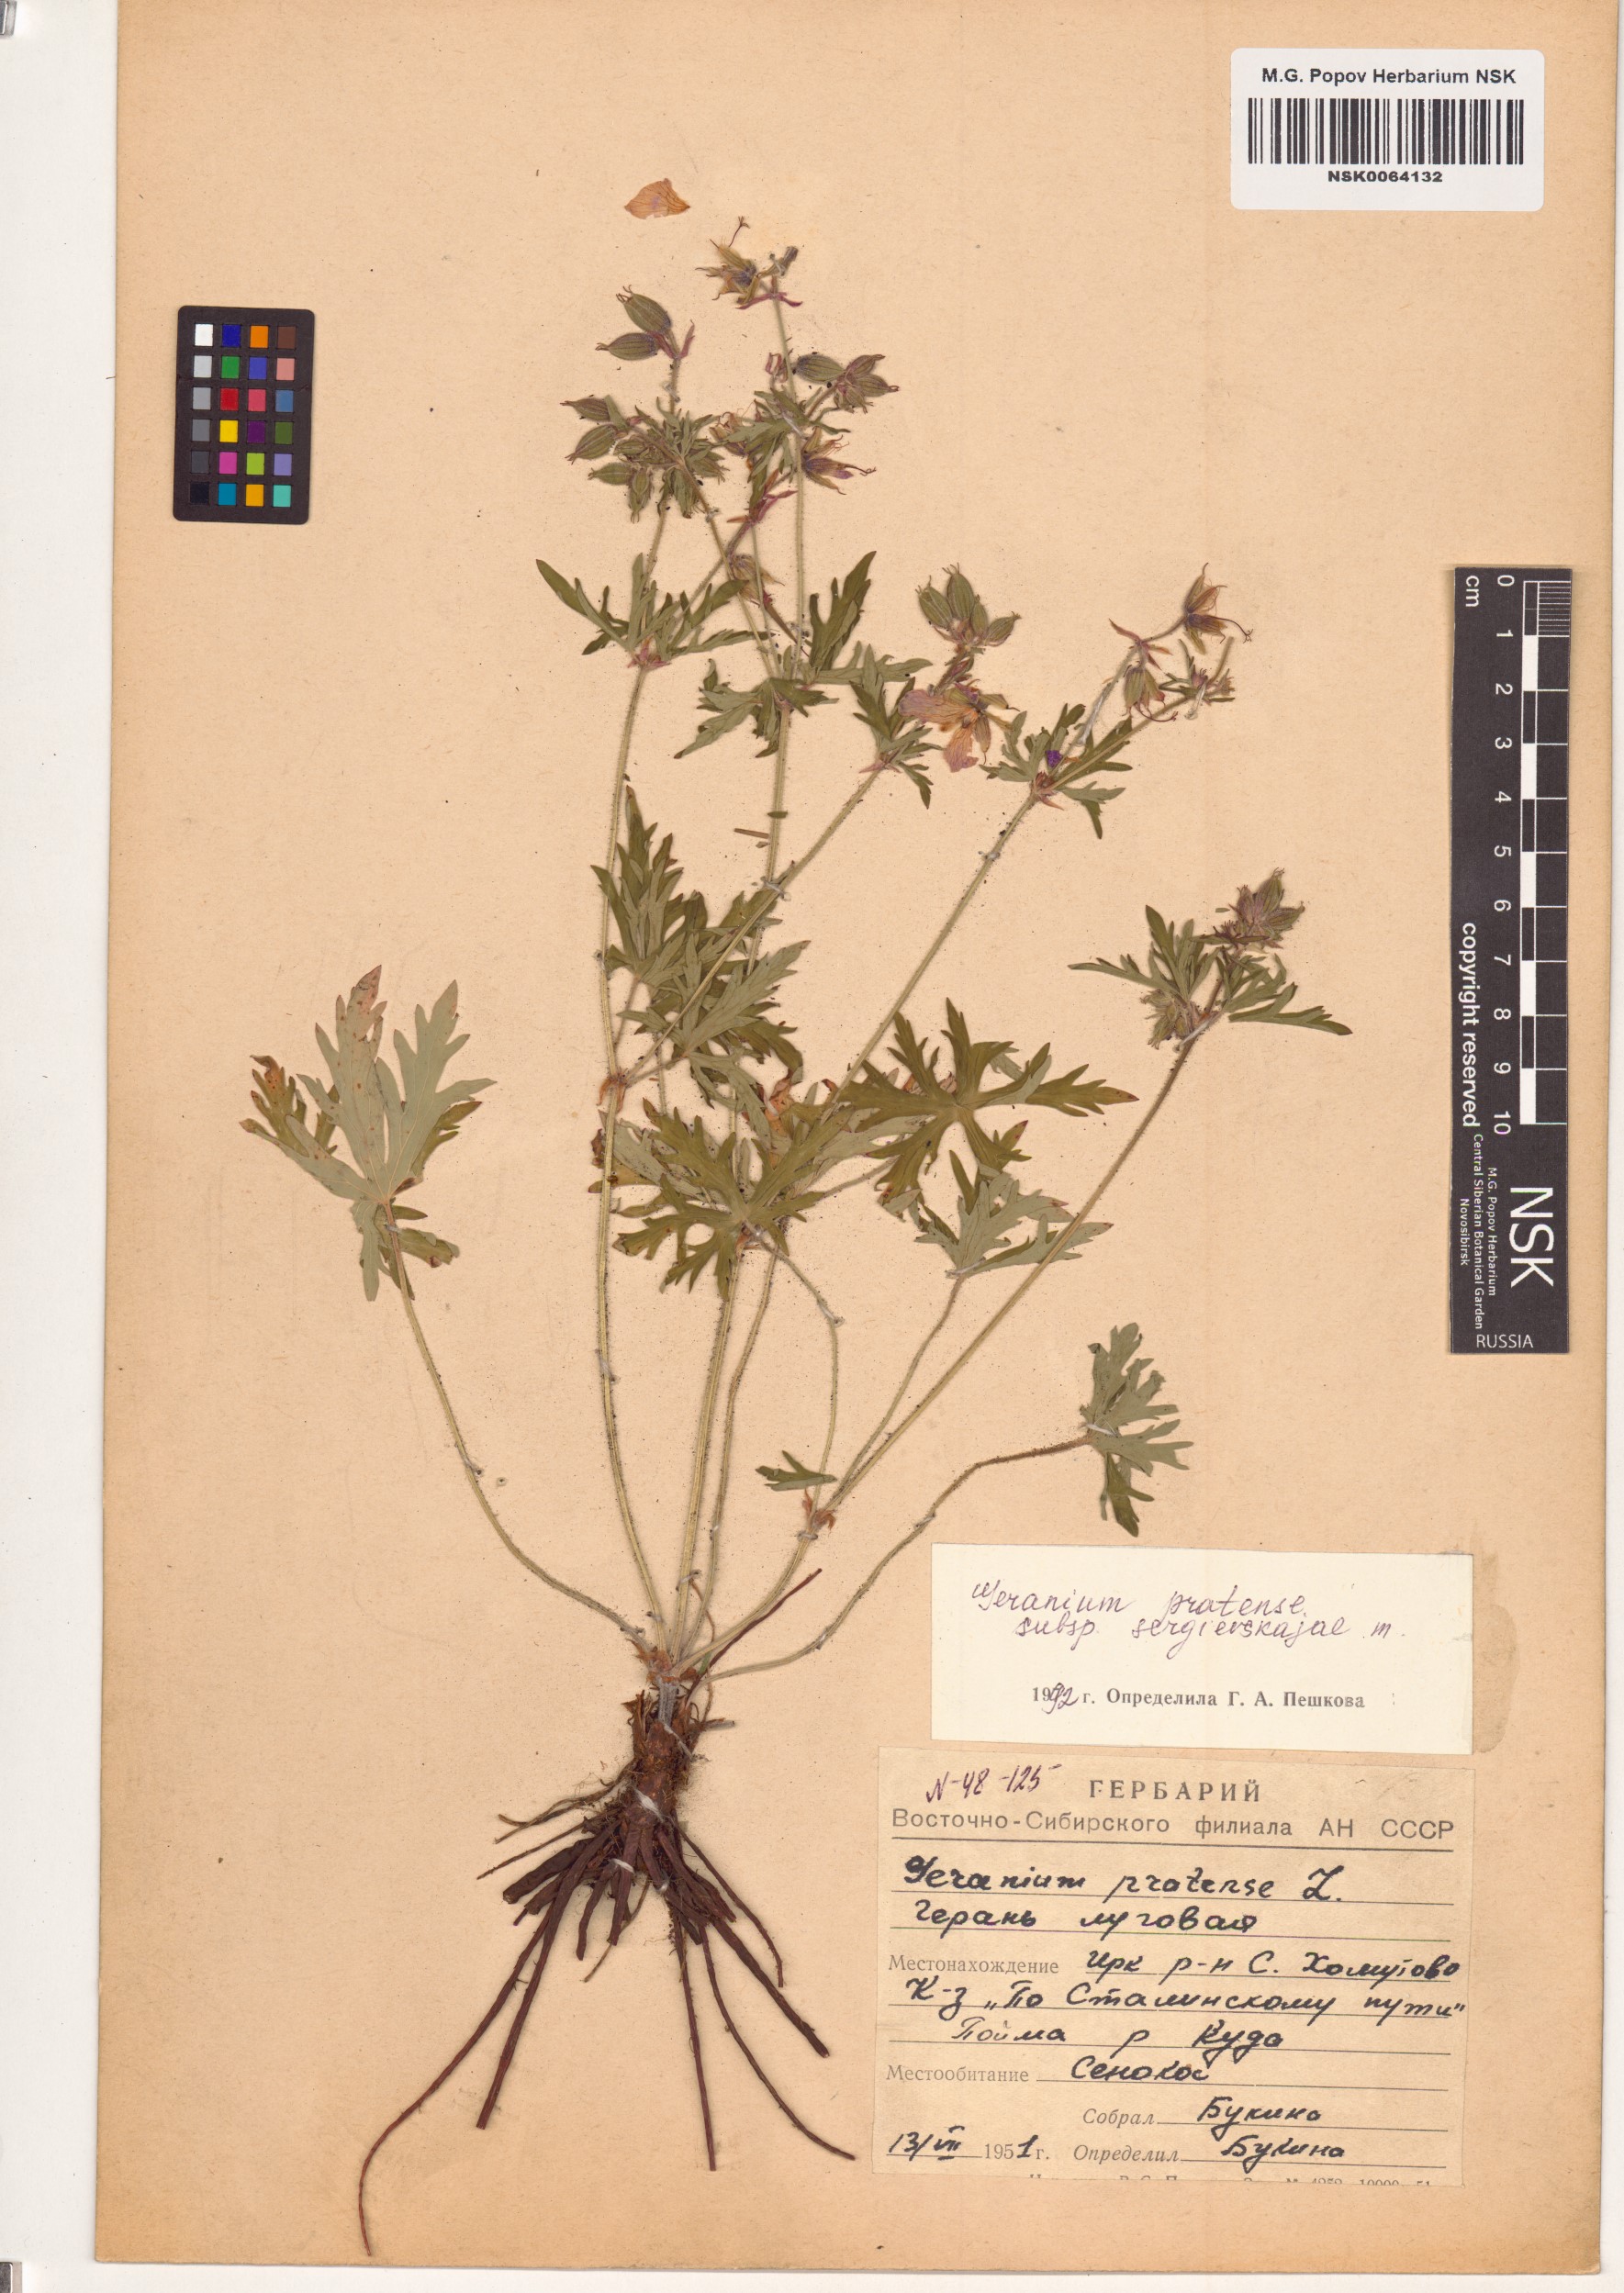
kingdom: Plantae
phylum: Tracheophyta
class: Magnoliopsida
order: Geraniales
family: Geraniaceae
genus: Geranium
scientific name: Geranium pratense
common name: Meadow crane's-bill
